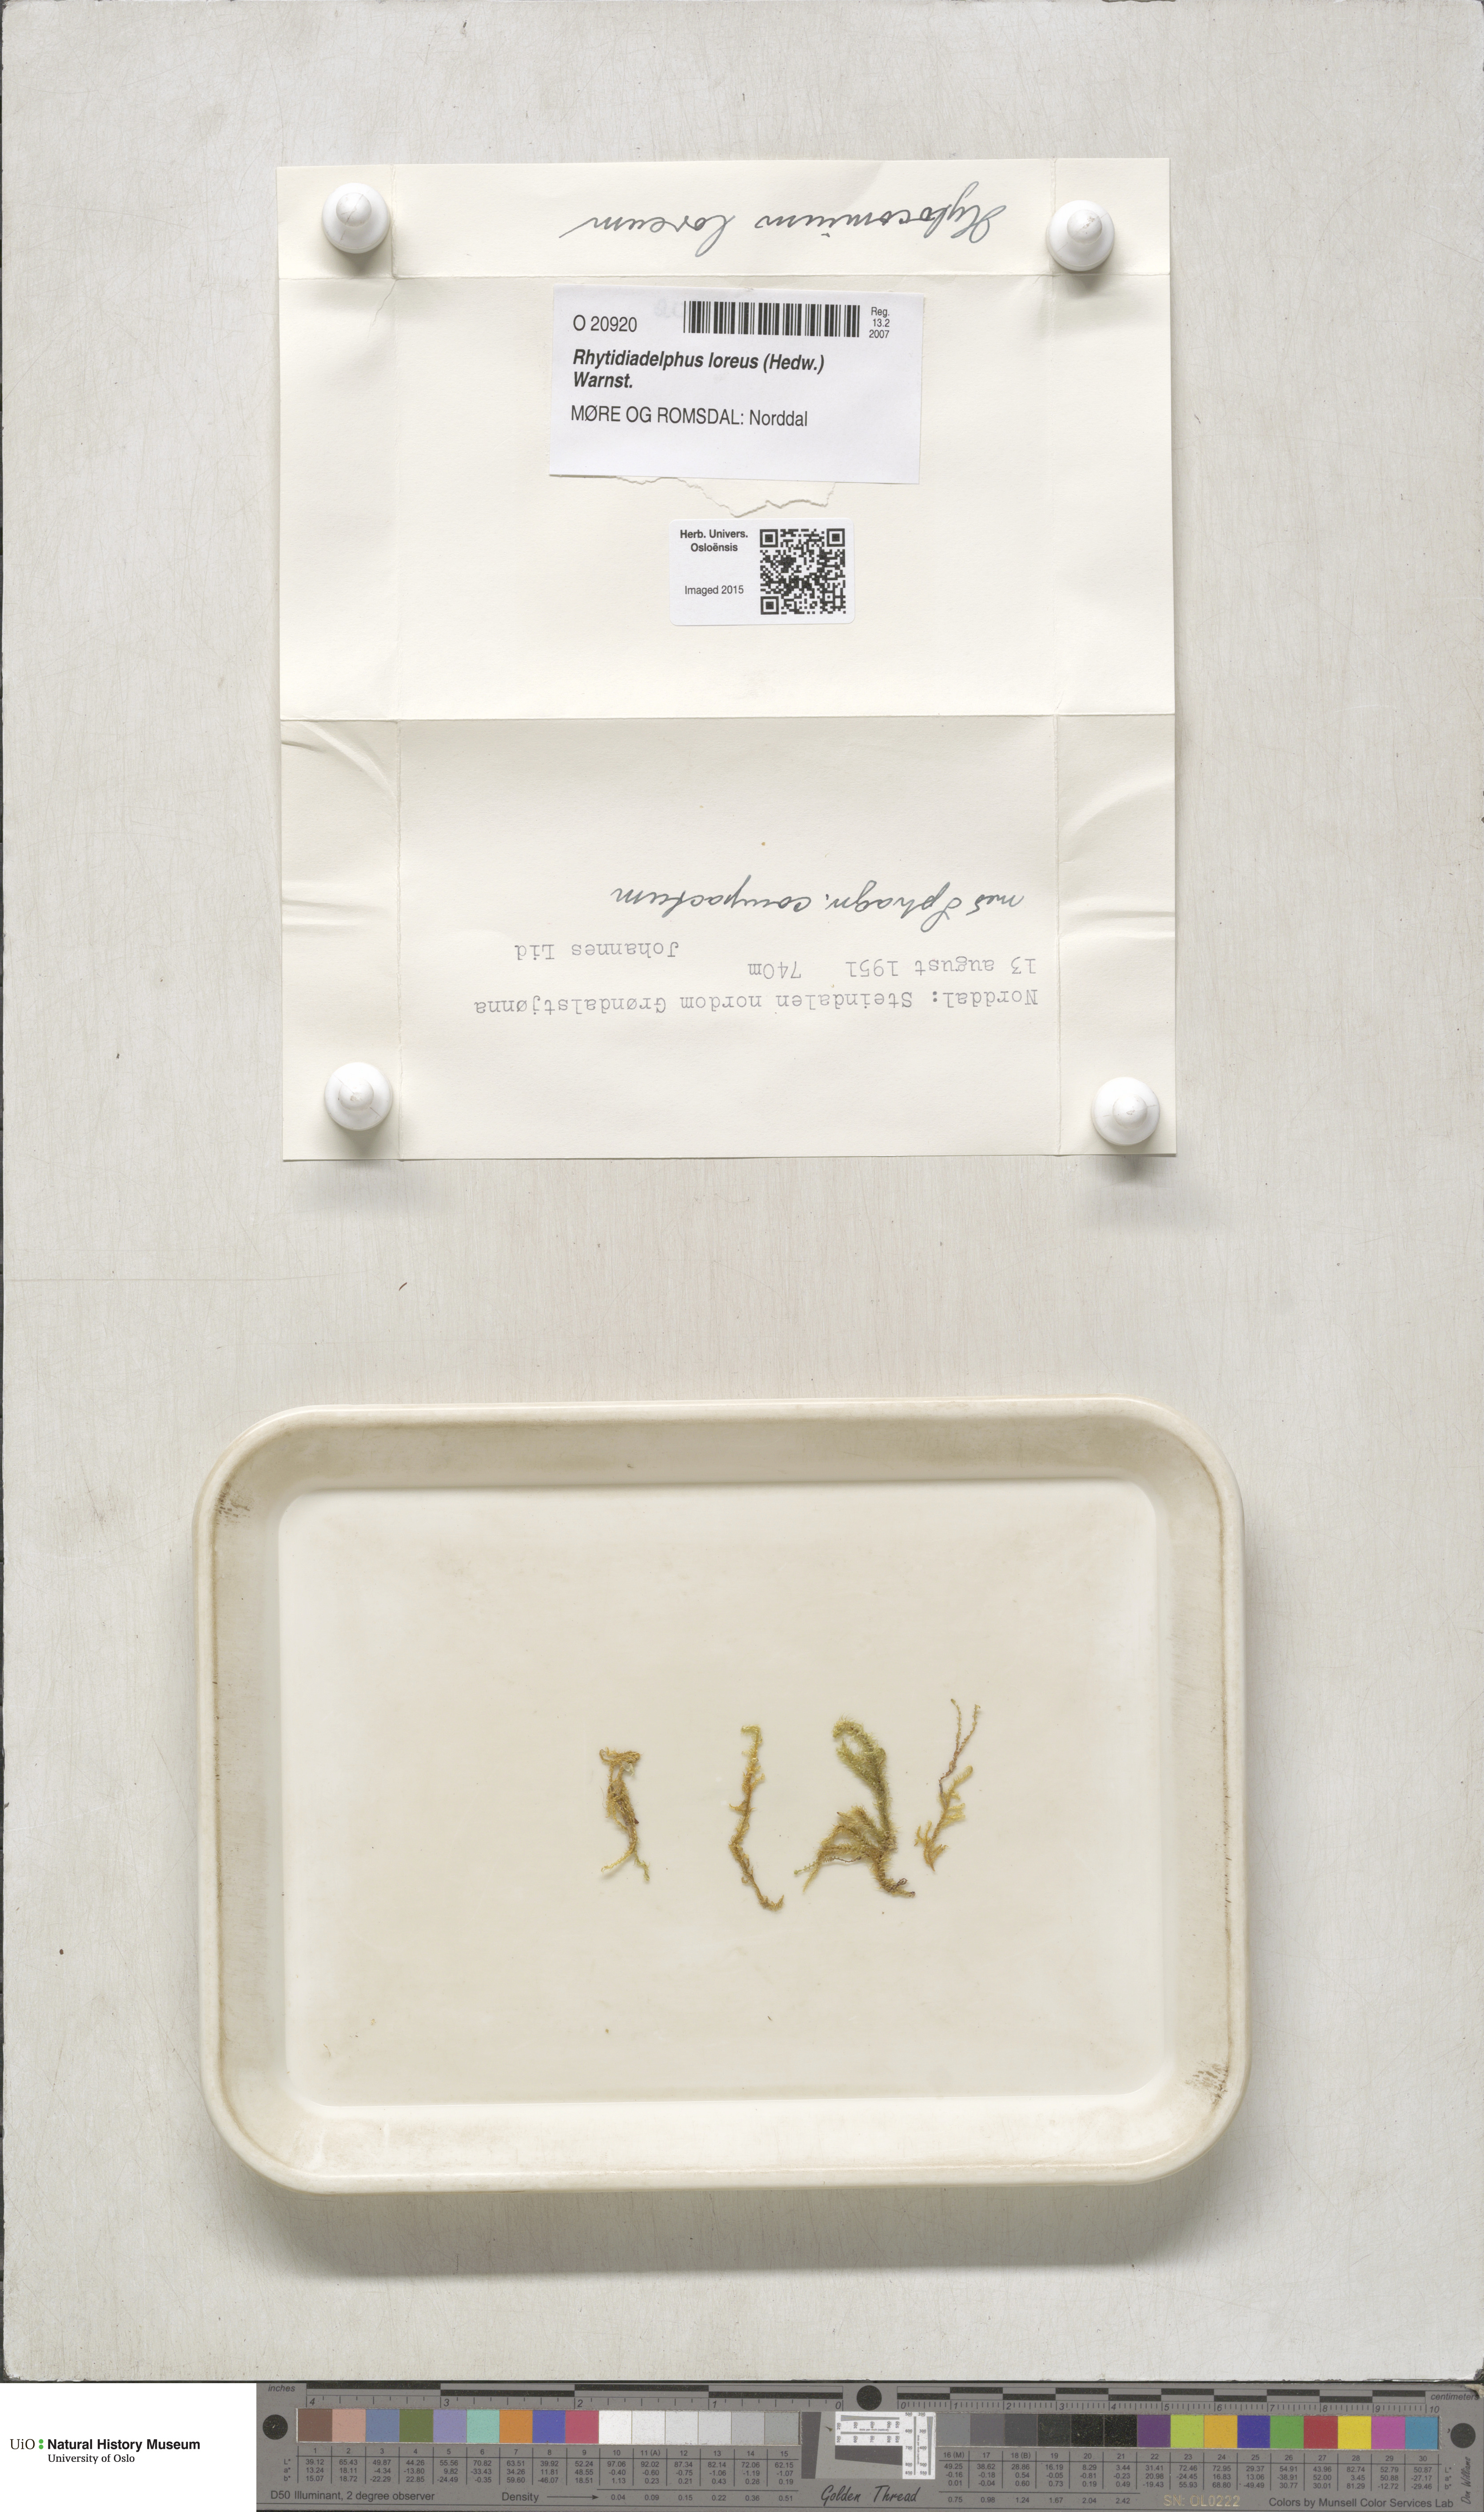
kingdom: Plantae
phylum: Bryophyta
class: Bryopsida
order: Hypnales
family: Hylocomiaceae
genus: Rhytidiadelphus
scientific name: Rhytidiadelphus loreus
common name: Lanky moss
